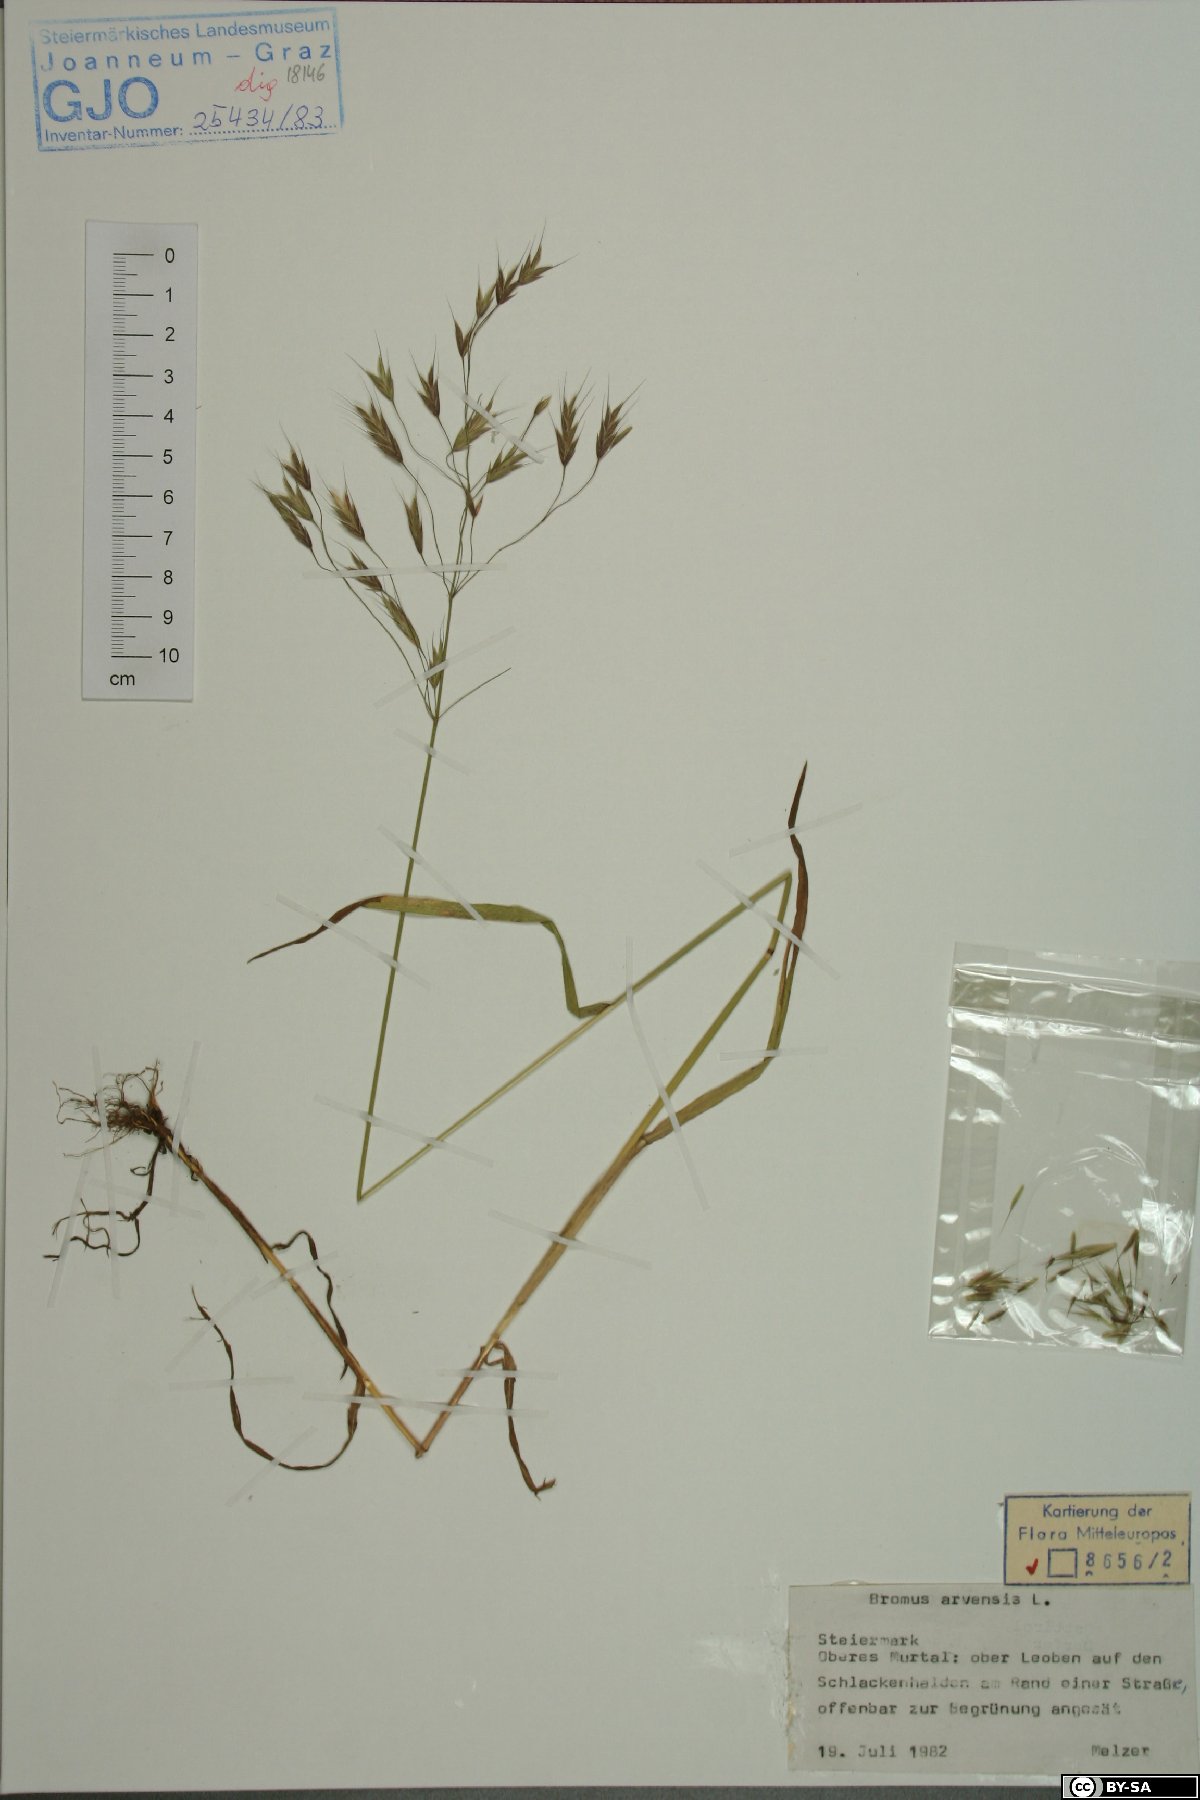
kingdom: Plantae
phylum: Tracheophyta
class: Liliopsida
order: Poales
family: Poaceae
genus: Bromus
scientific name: Bromus arvensis
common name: Field brome
